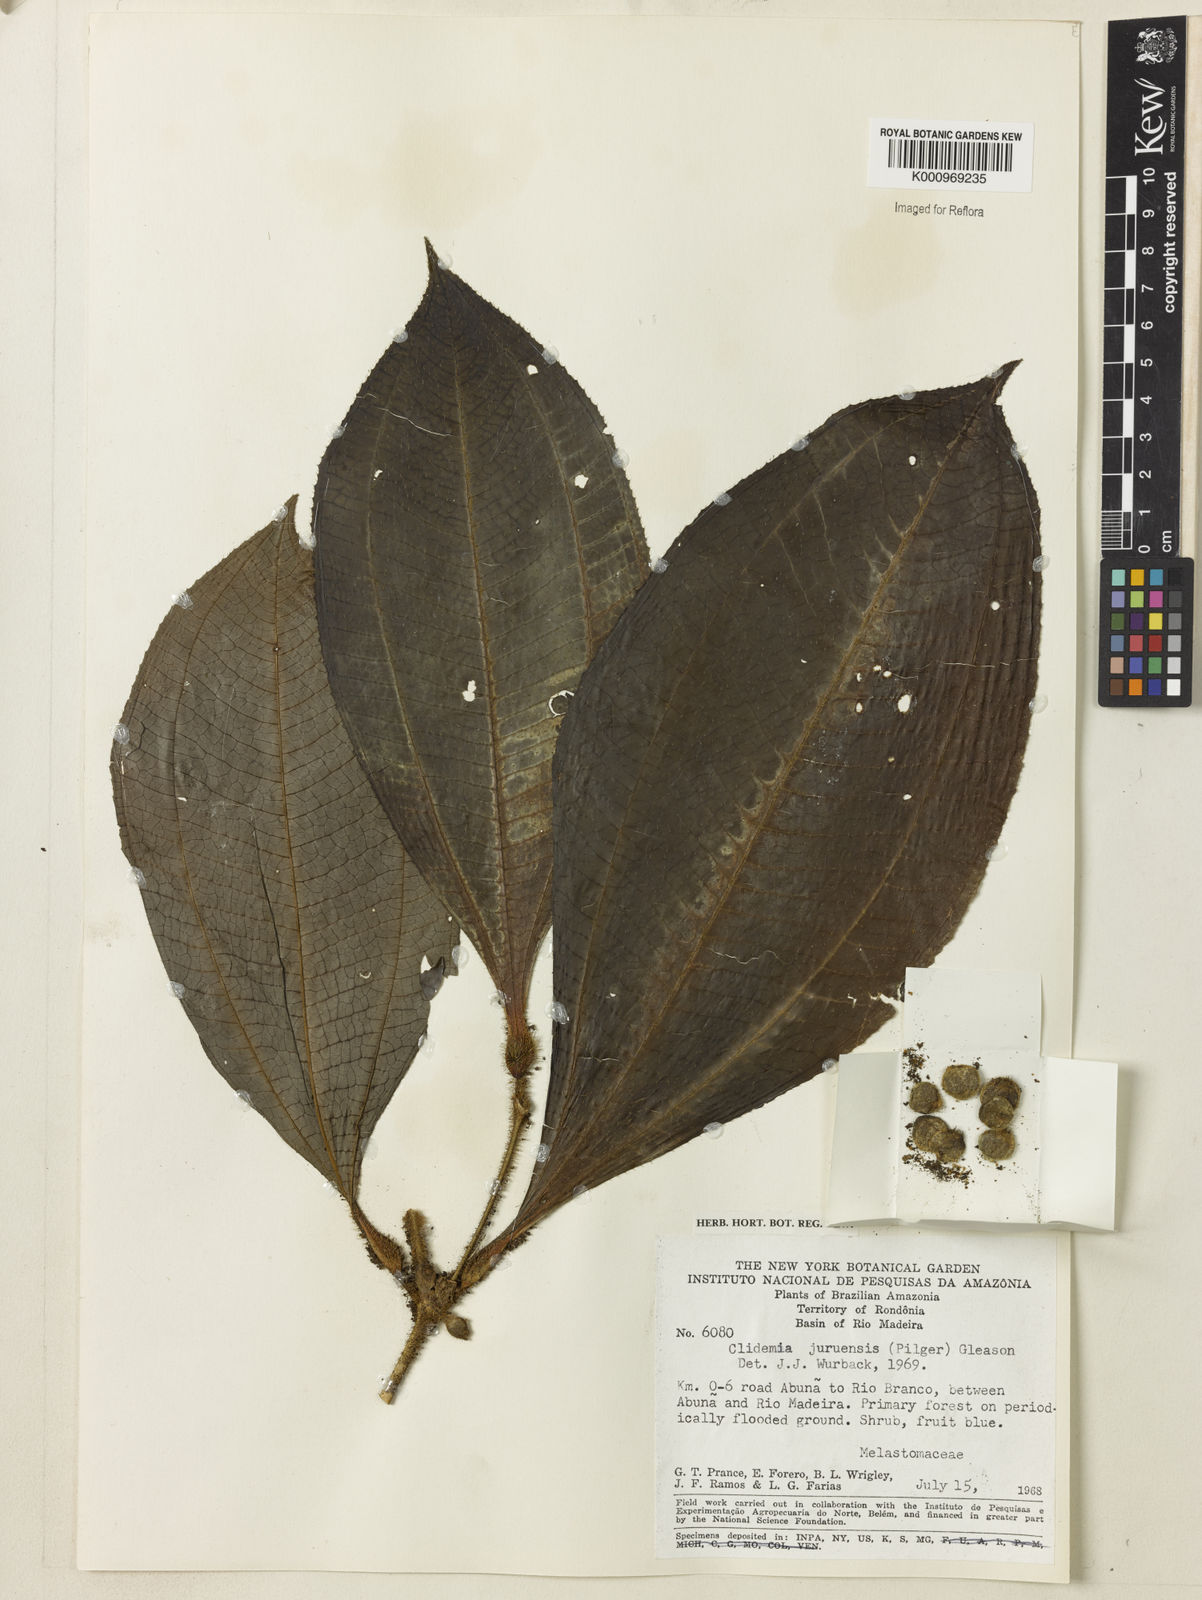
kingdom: Plantae
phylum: Tracheophyta
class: Magnoliopsida
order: Myrtales
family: Melastomataceae
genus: Miconia
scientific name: Miconia formicojuruensis
